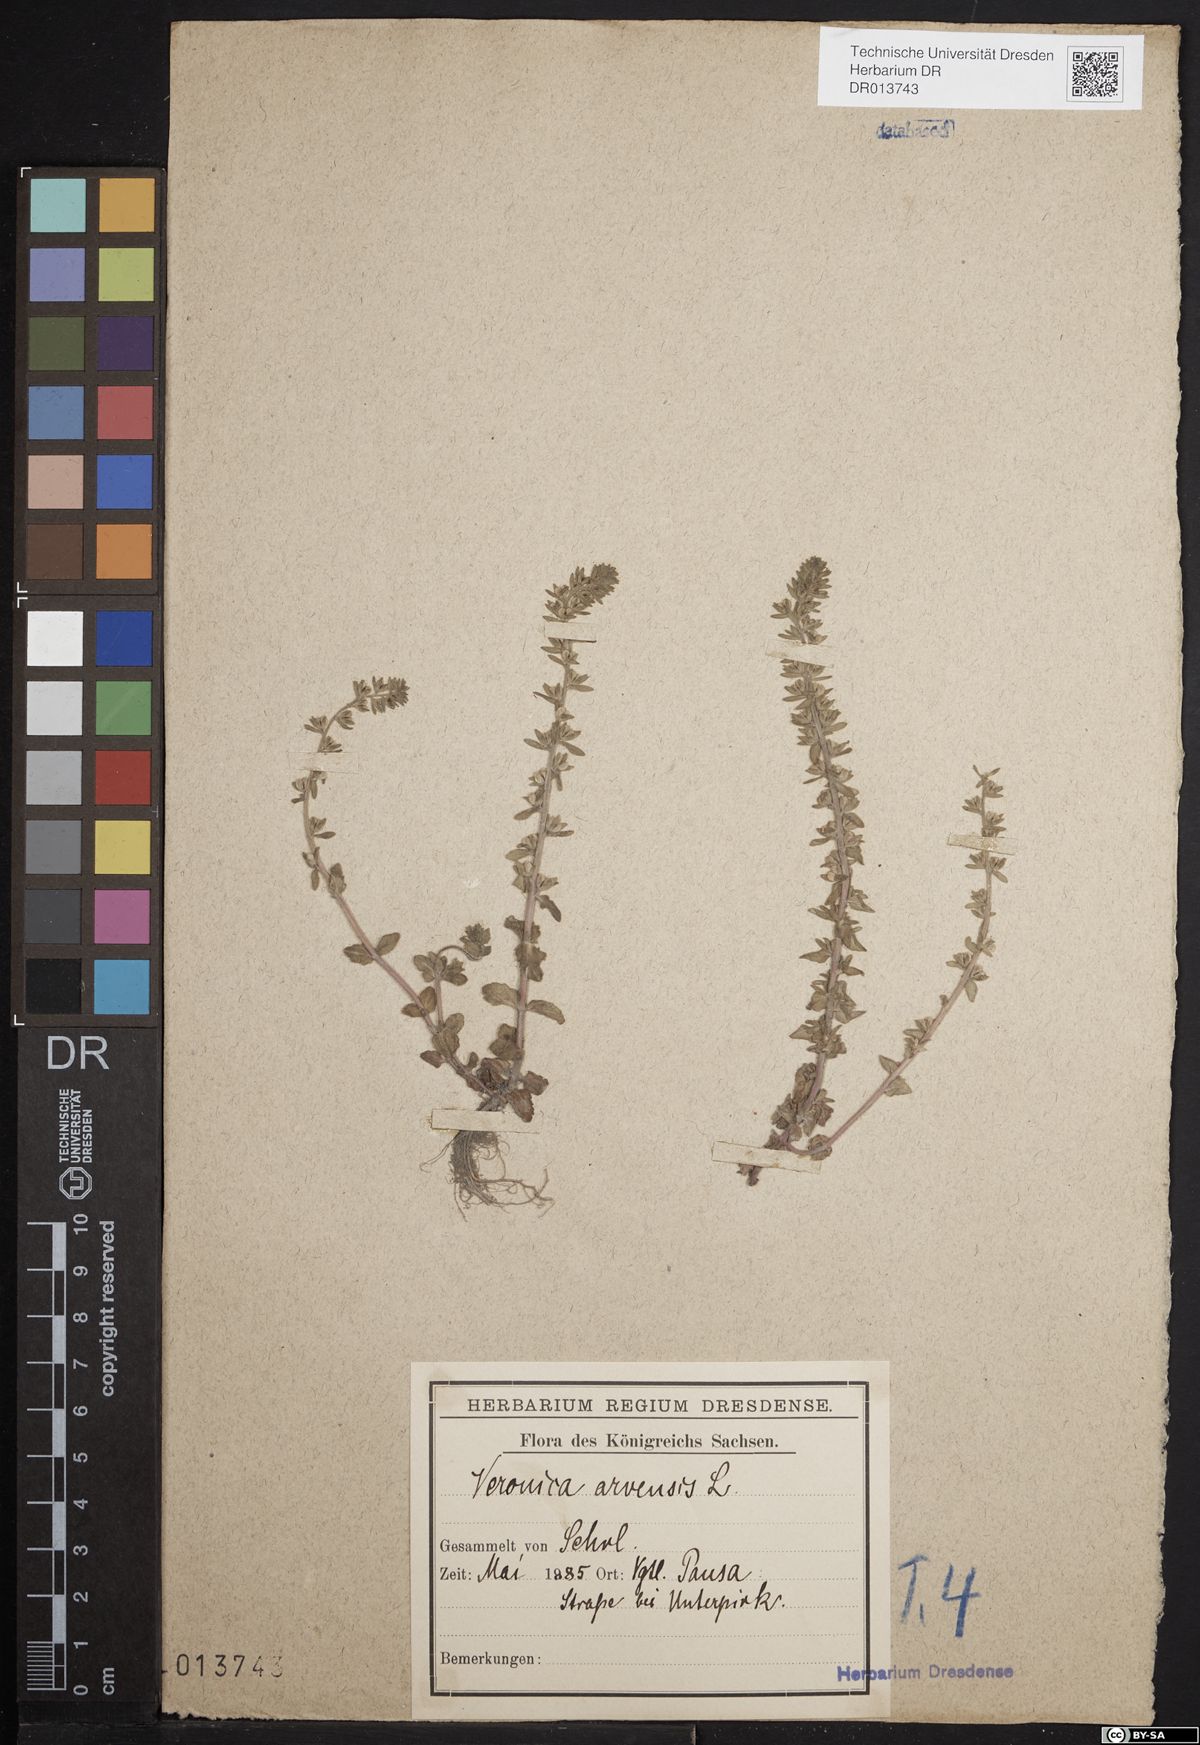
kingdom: Plantae
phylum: Tracheophyta
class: Magnoliopsida
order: Lamiales
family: Plantaginaceae
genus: Veronica
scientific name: Veronica arvensis
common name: Corn speedwell
